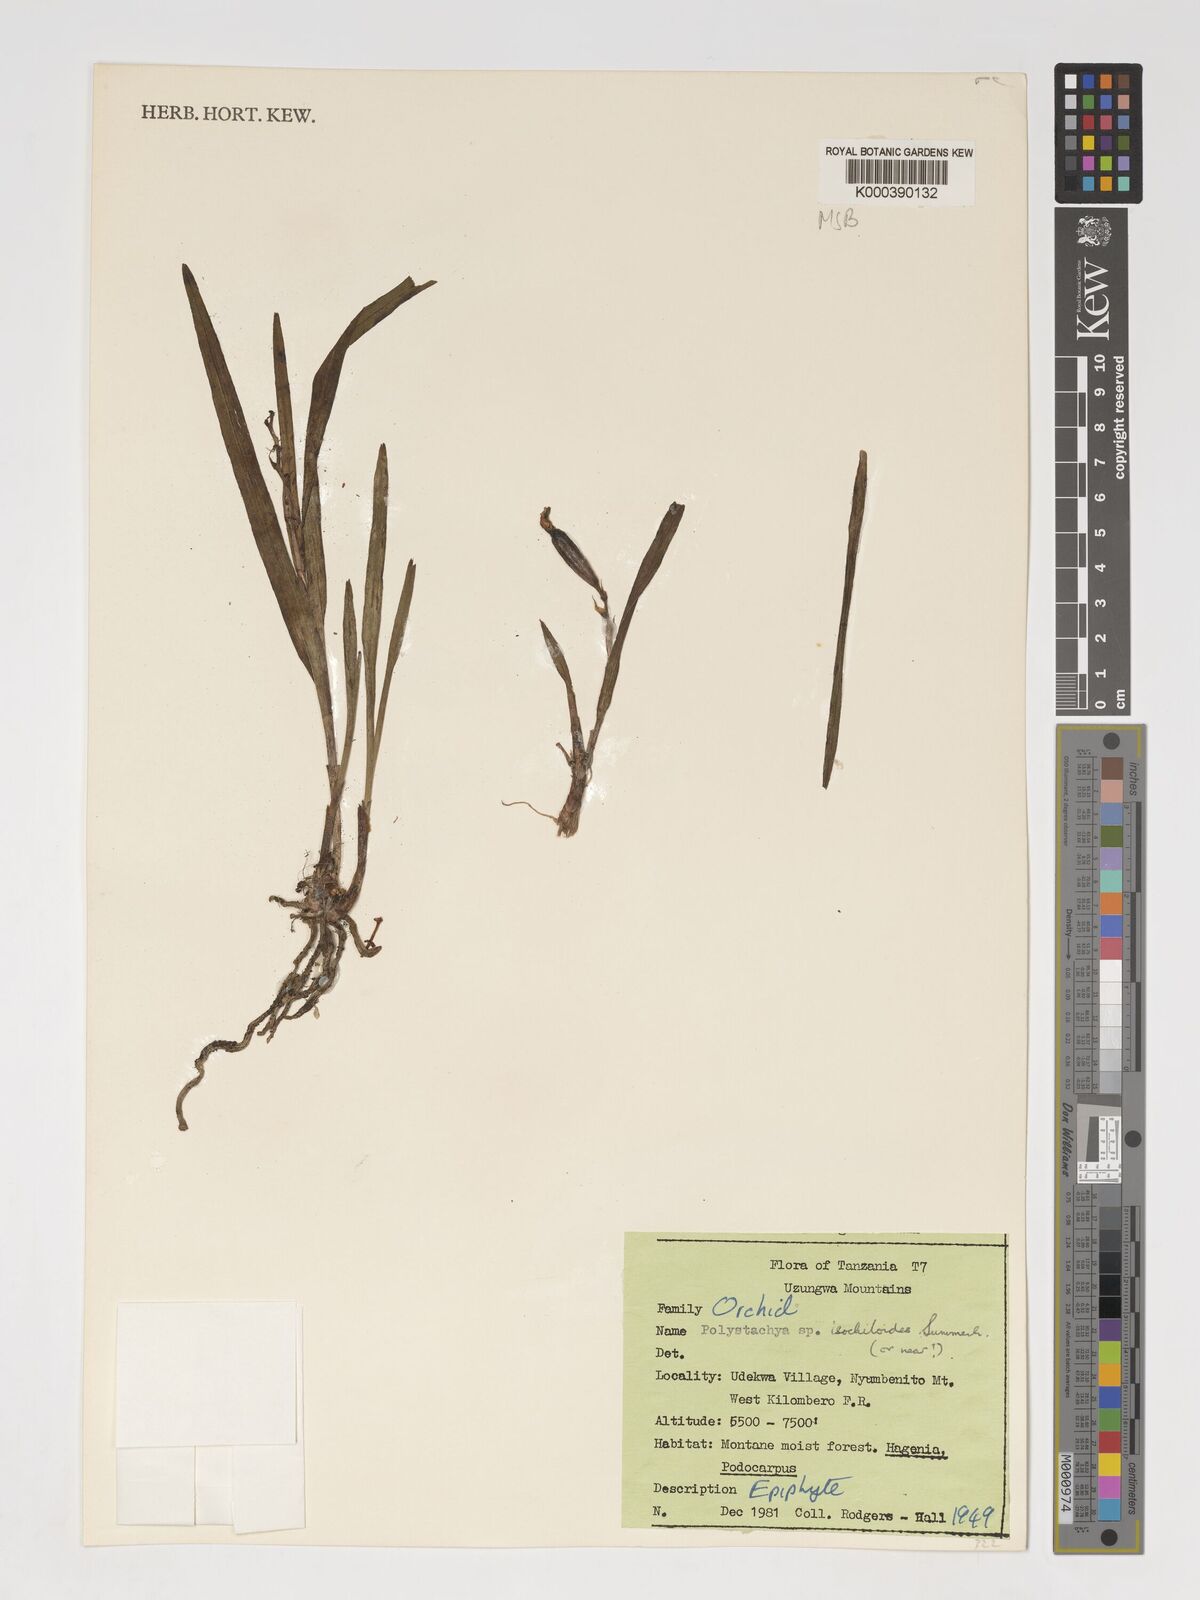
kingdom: Plantae
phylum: Tracheophyta
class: Liliopsida
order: Asparagales
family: Orchidaceae
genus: Polystachya
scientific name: Polystachya isochiloides
